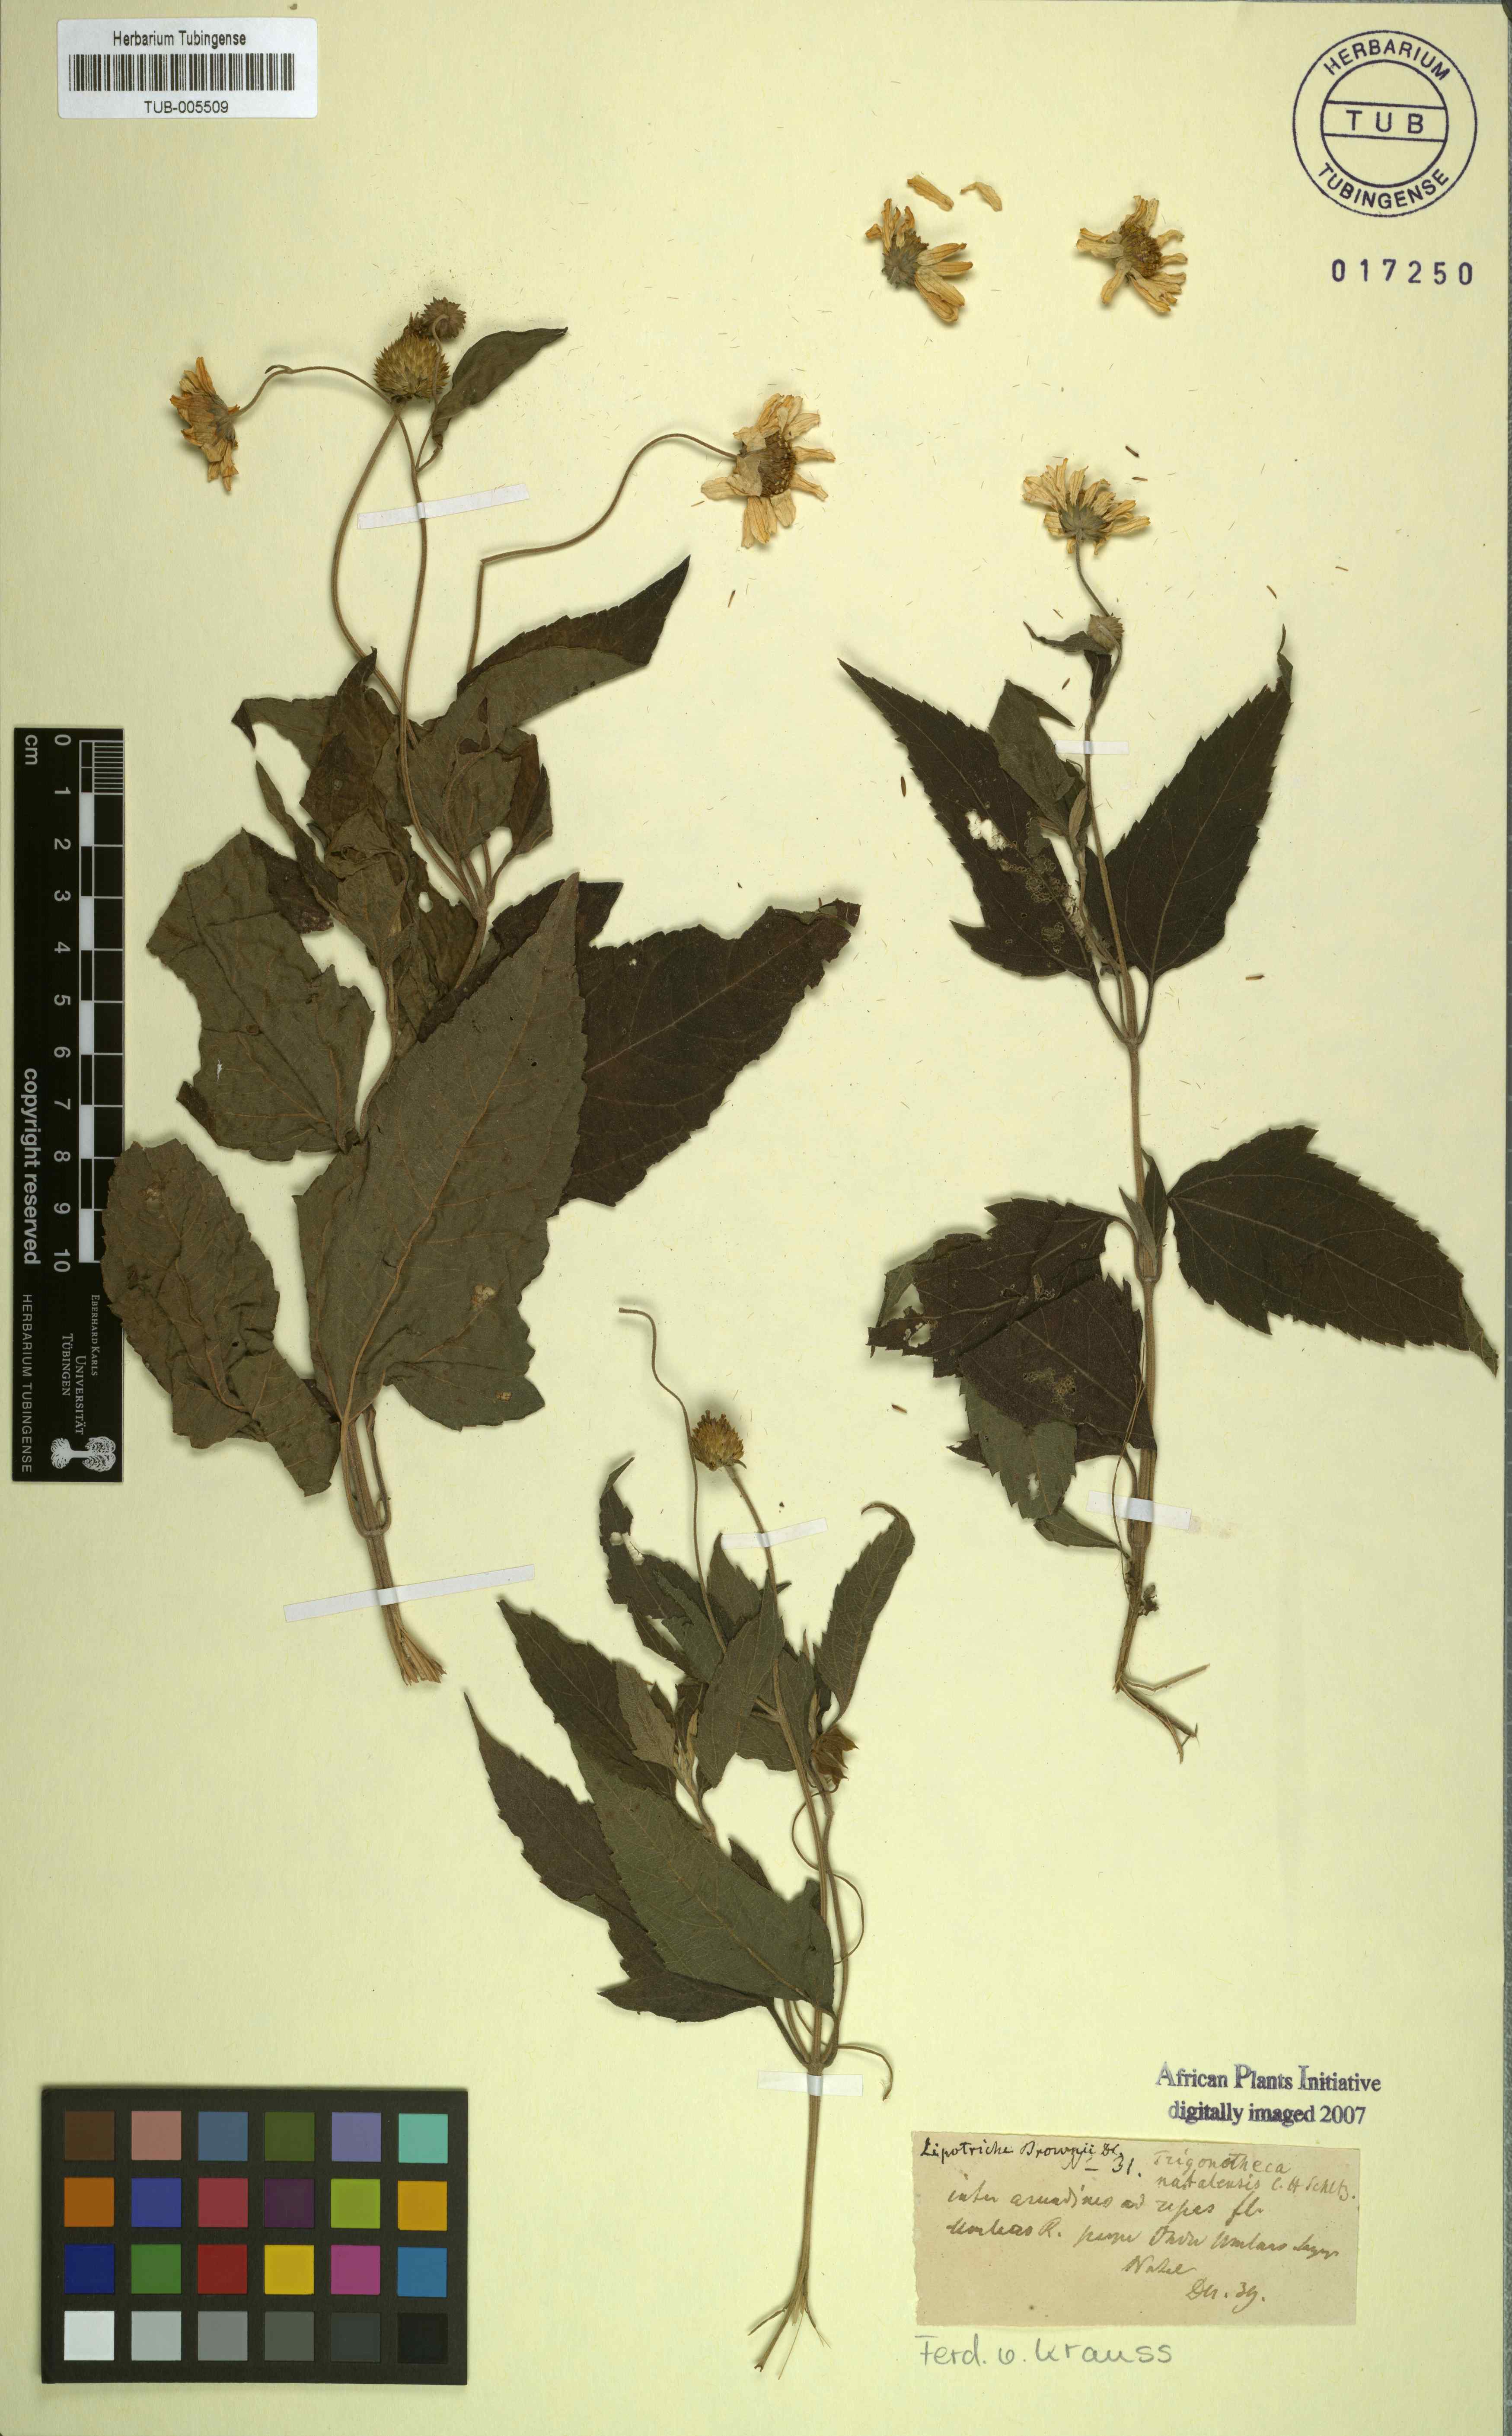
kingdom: Plantae
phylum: Tracheophyta
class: Magnoliopsida
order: Asterales
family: Asteraceae
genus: Melanthera
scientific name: Melanthera scandens
